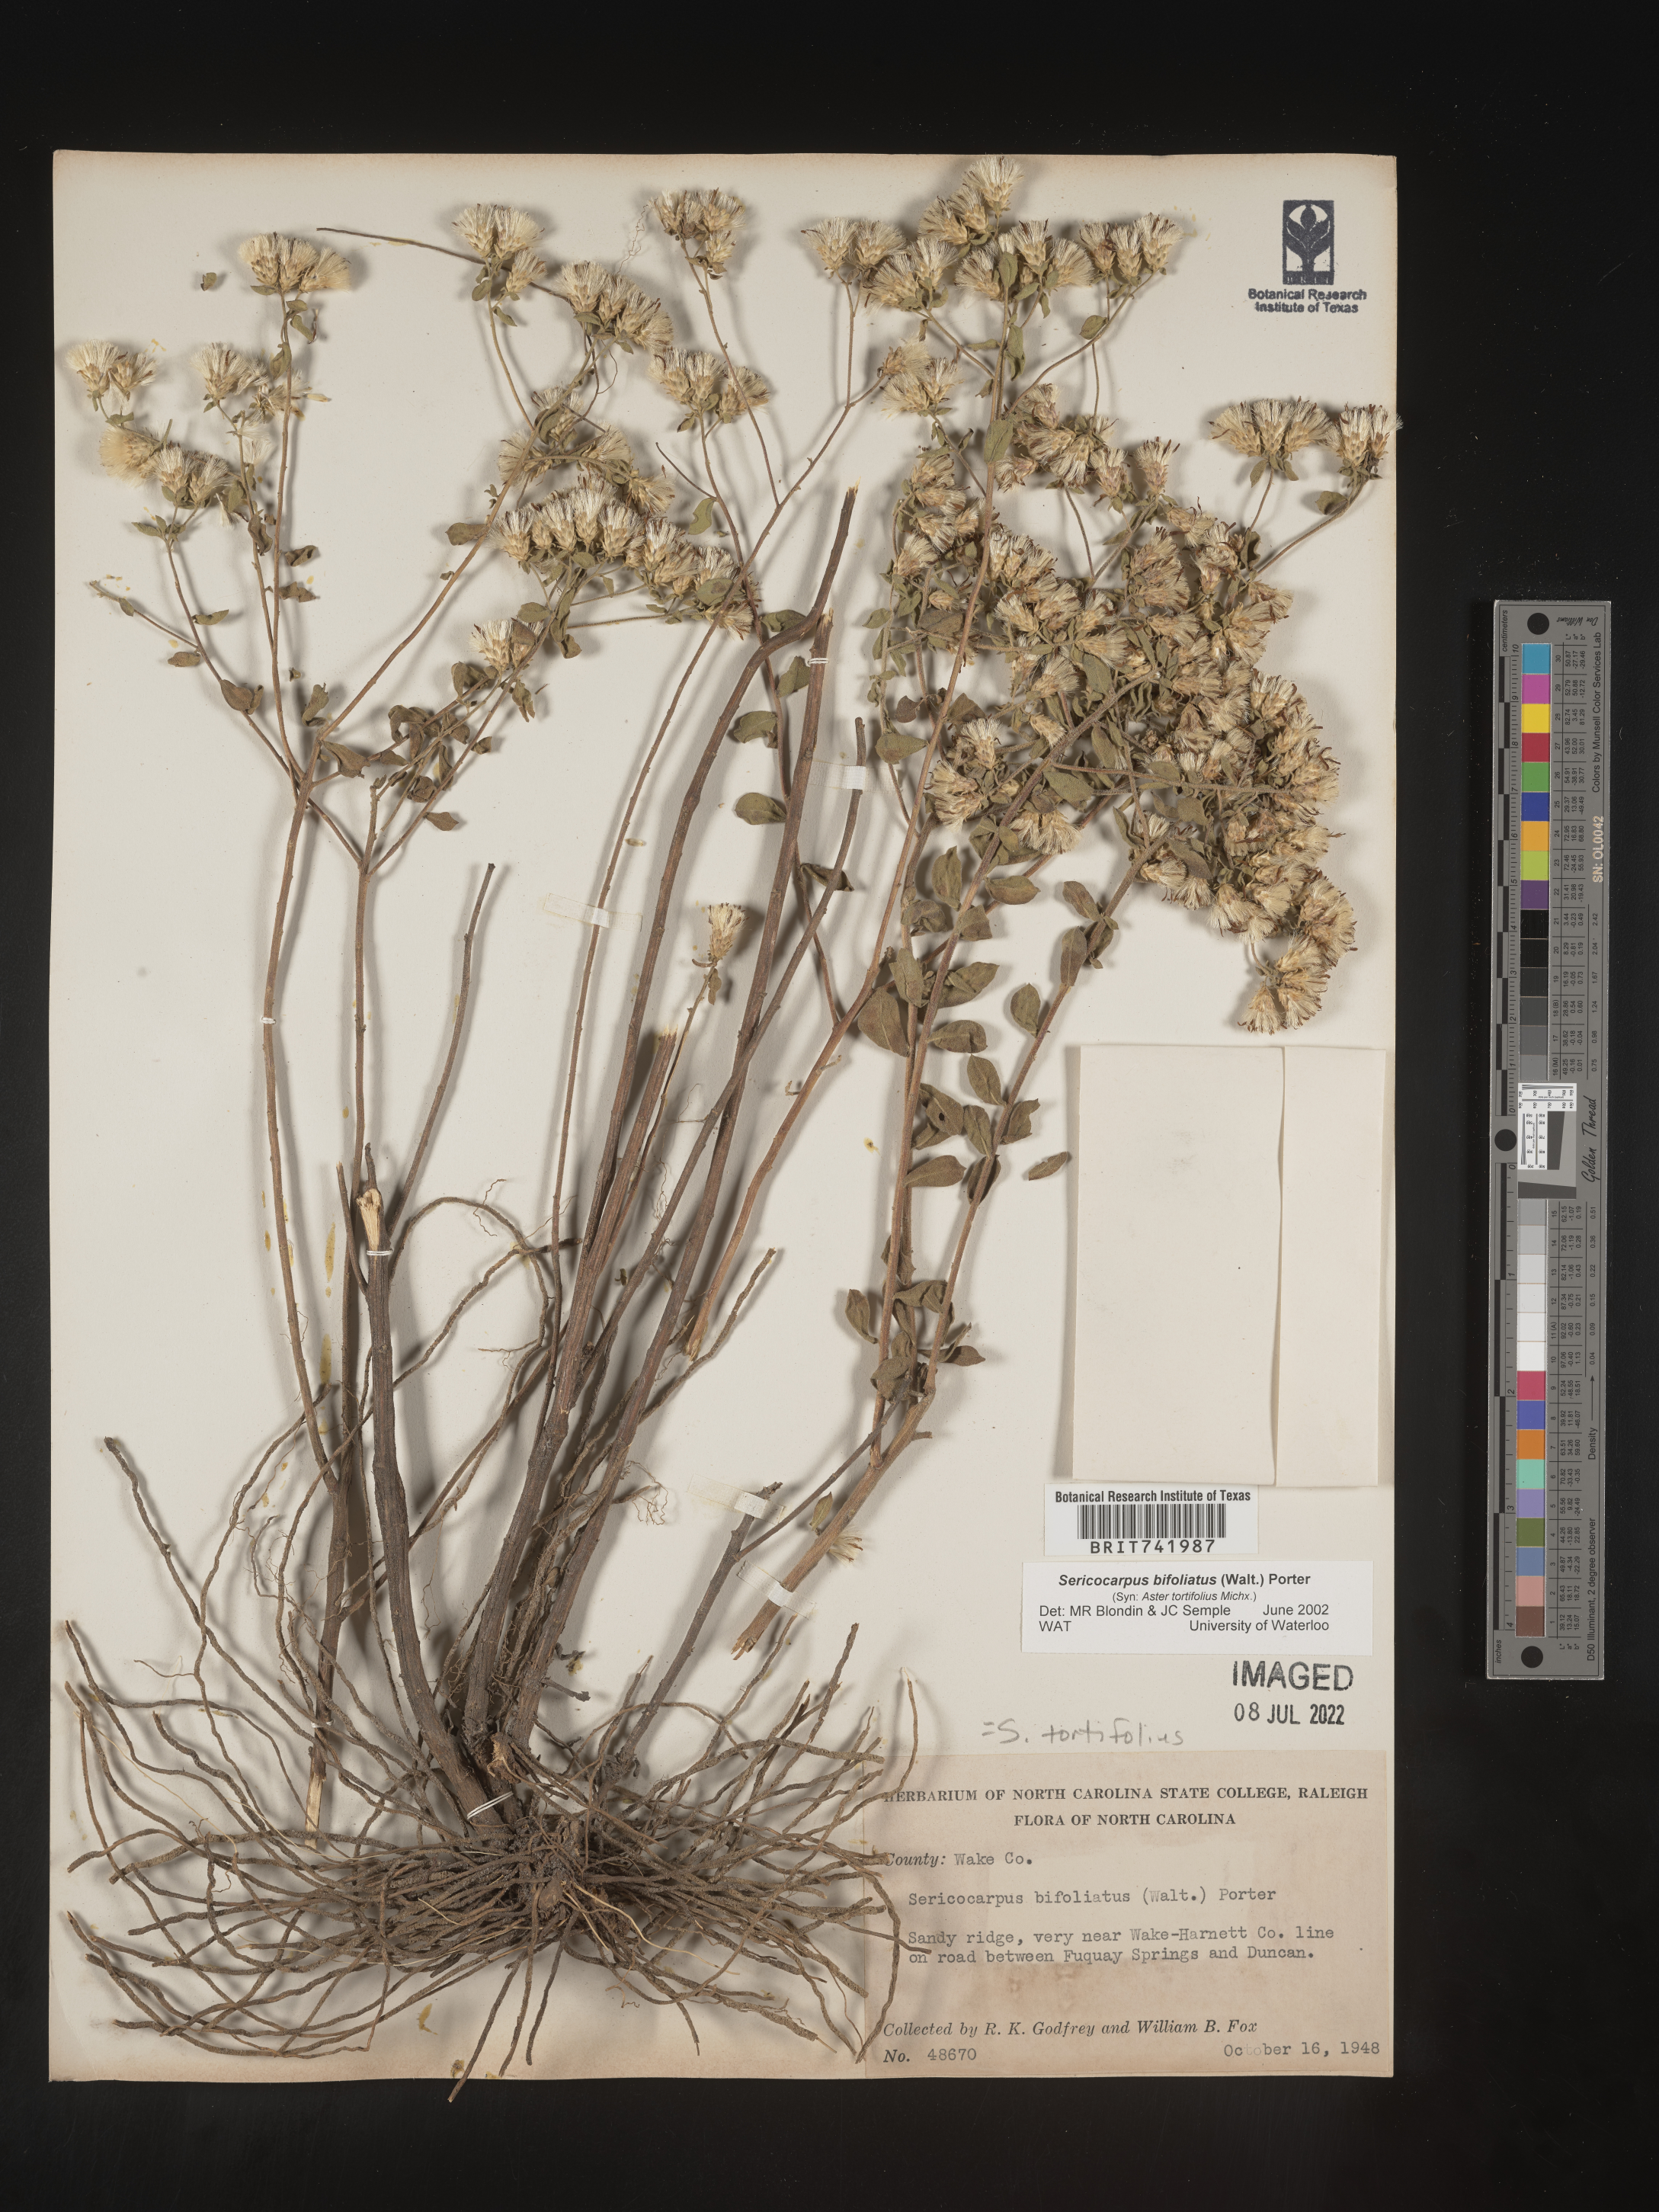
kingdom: Plantae
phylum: Tracheophyta
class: Magnoliopsida
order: Asterales
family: Asteraceae
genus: Sericocarpus
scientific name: Sericocarpus tortifolius
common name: Dixie aster
